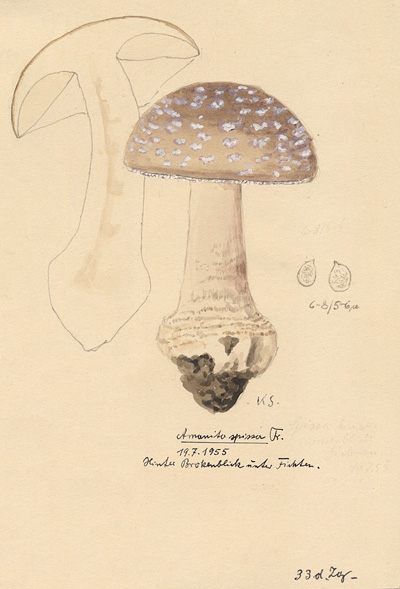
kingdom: Fungi
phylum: Basidiomycota
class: Agaricomycetes
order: Agaricales
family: Amanitaceae
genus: Amanita
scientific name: Amanita excelsa
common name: European false blusher
